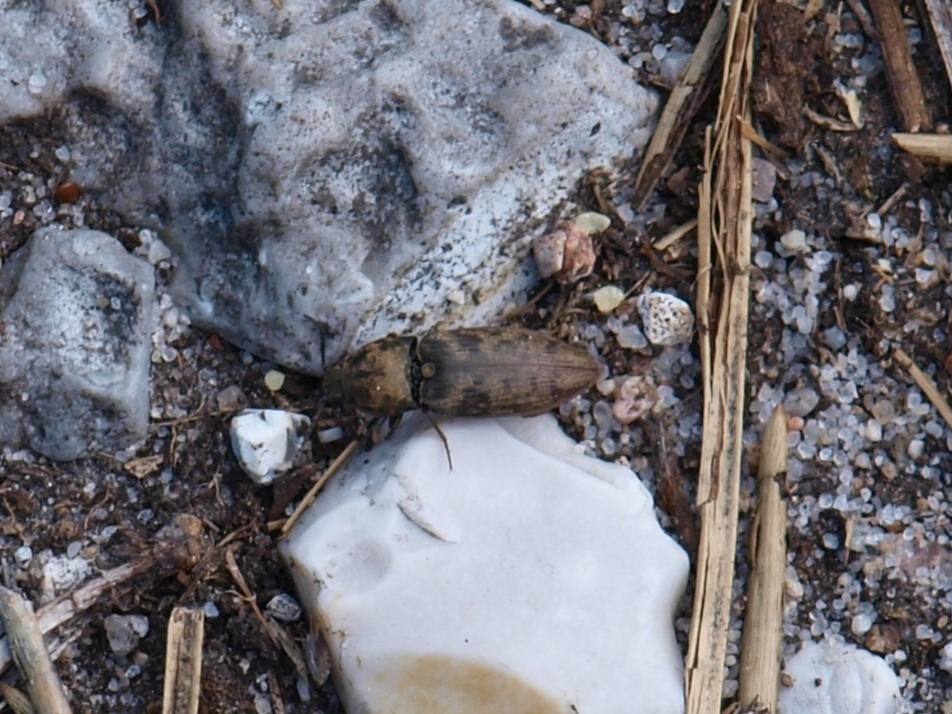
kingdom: Animalia
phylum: Arthropoda
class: Insecta
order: Coleoptera
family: Elateridae
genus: Prosternon
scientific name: Prosternon tessellatum
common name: Silkeglinsende jordsmælder
